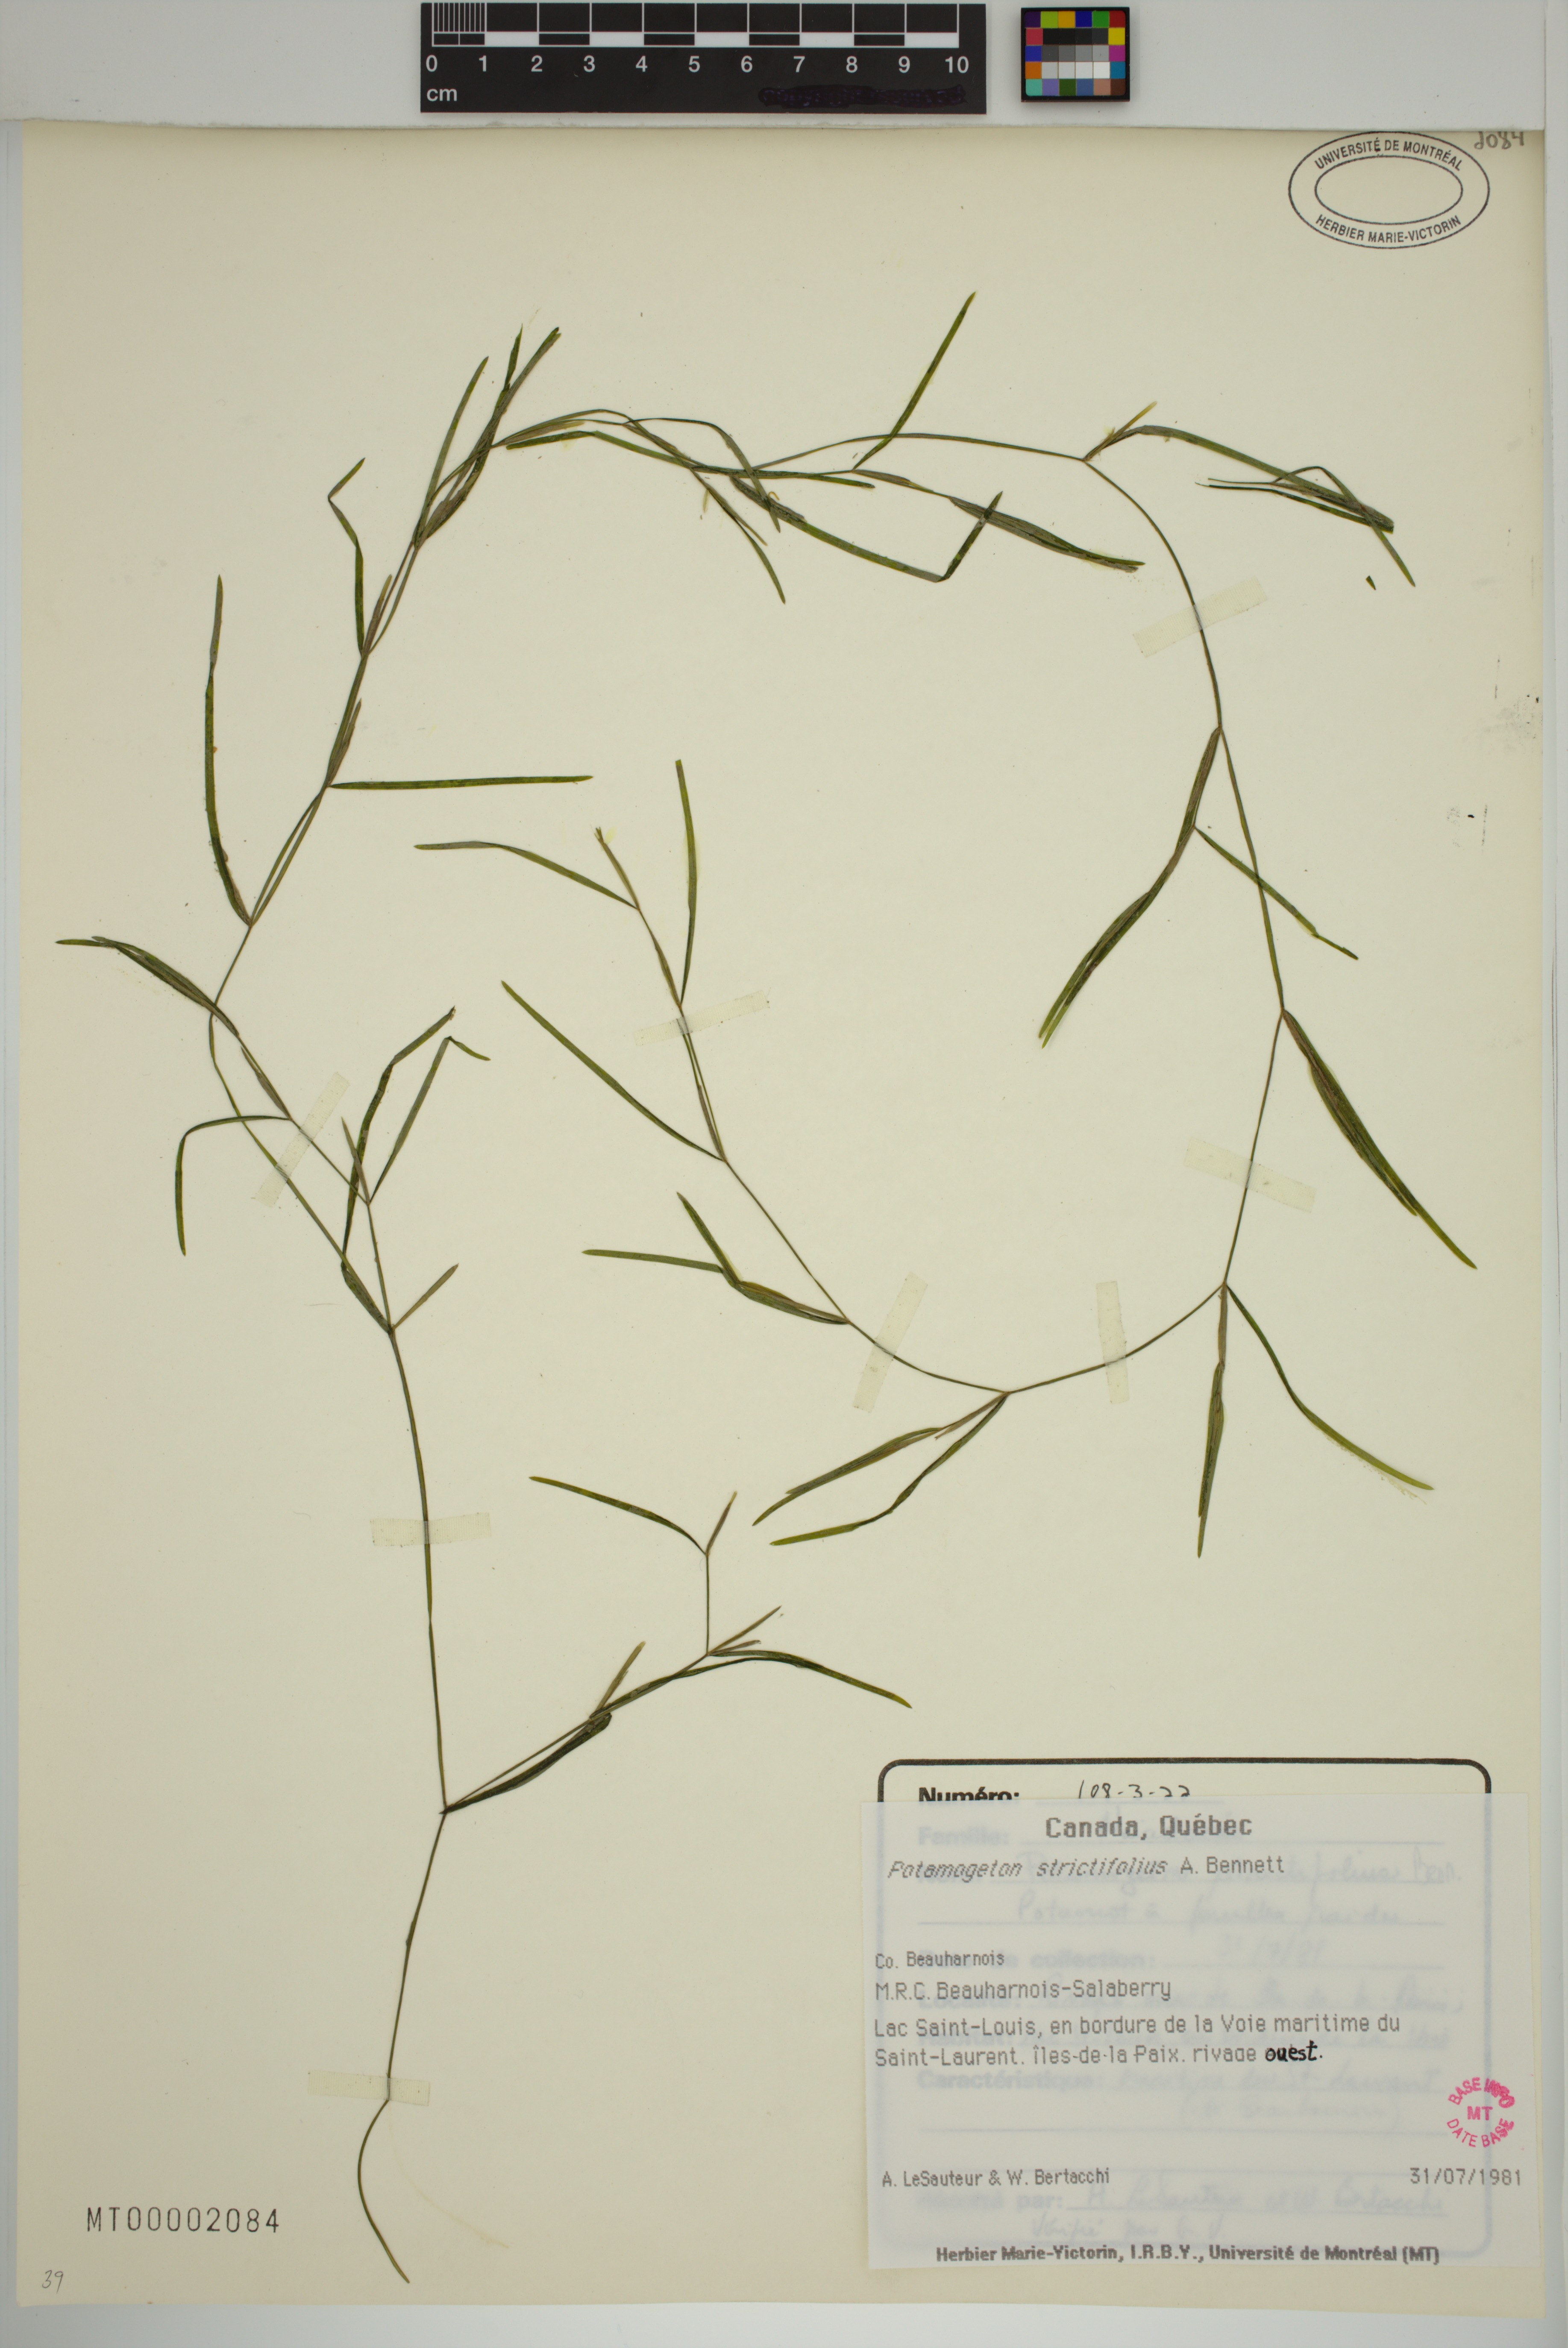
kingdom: Plantae
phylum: Tracheophyta
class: Liliopsida
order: Alismatales
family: Potamogetonaceae
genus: Potamogeton
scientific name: Potamogeton strictifolius
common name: Linear-leaved pondweed
